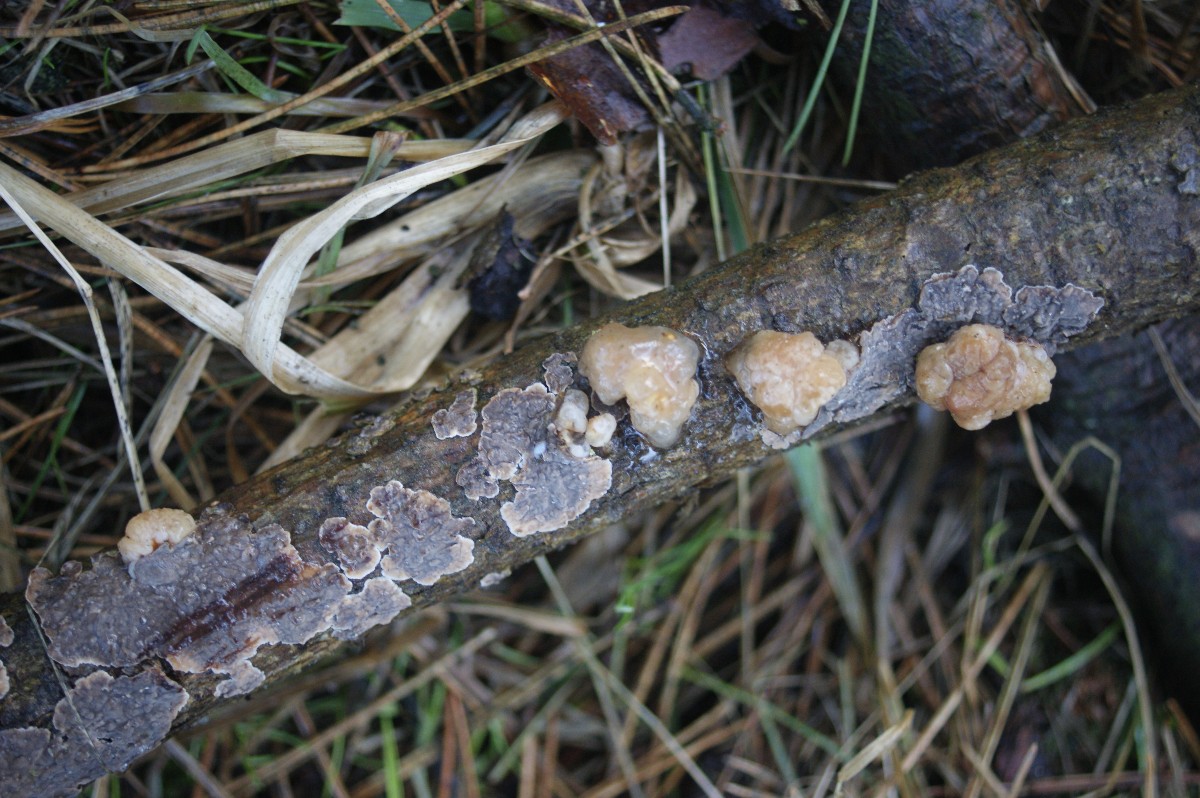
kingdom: Fungi
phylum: Basidiomycota
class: Tremellomycetes
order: Tremellales
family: Naemateliaceae
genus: Naematelia
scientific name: Naematelia encephala
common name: fyrre-bævresvamp
